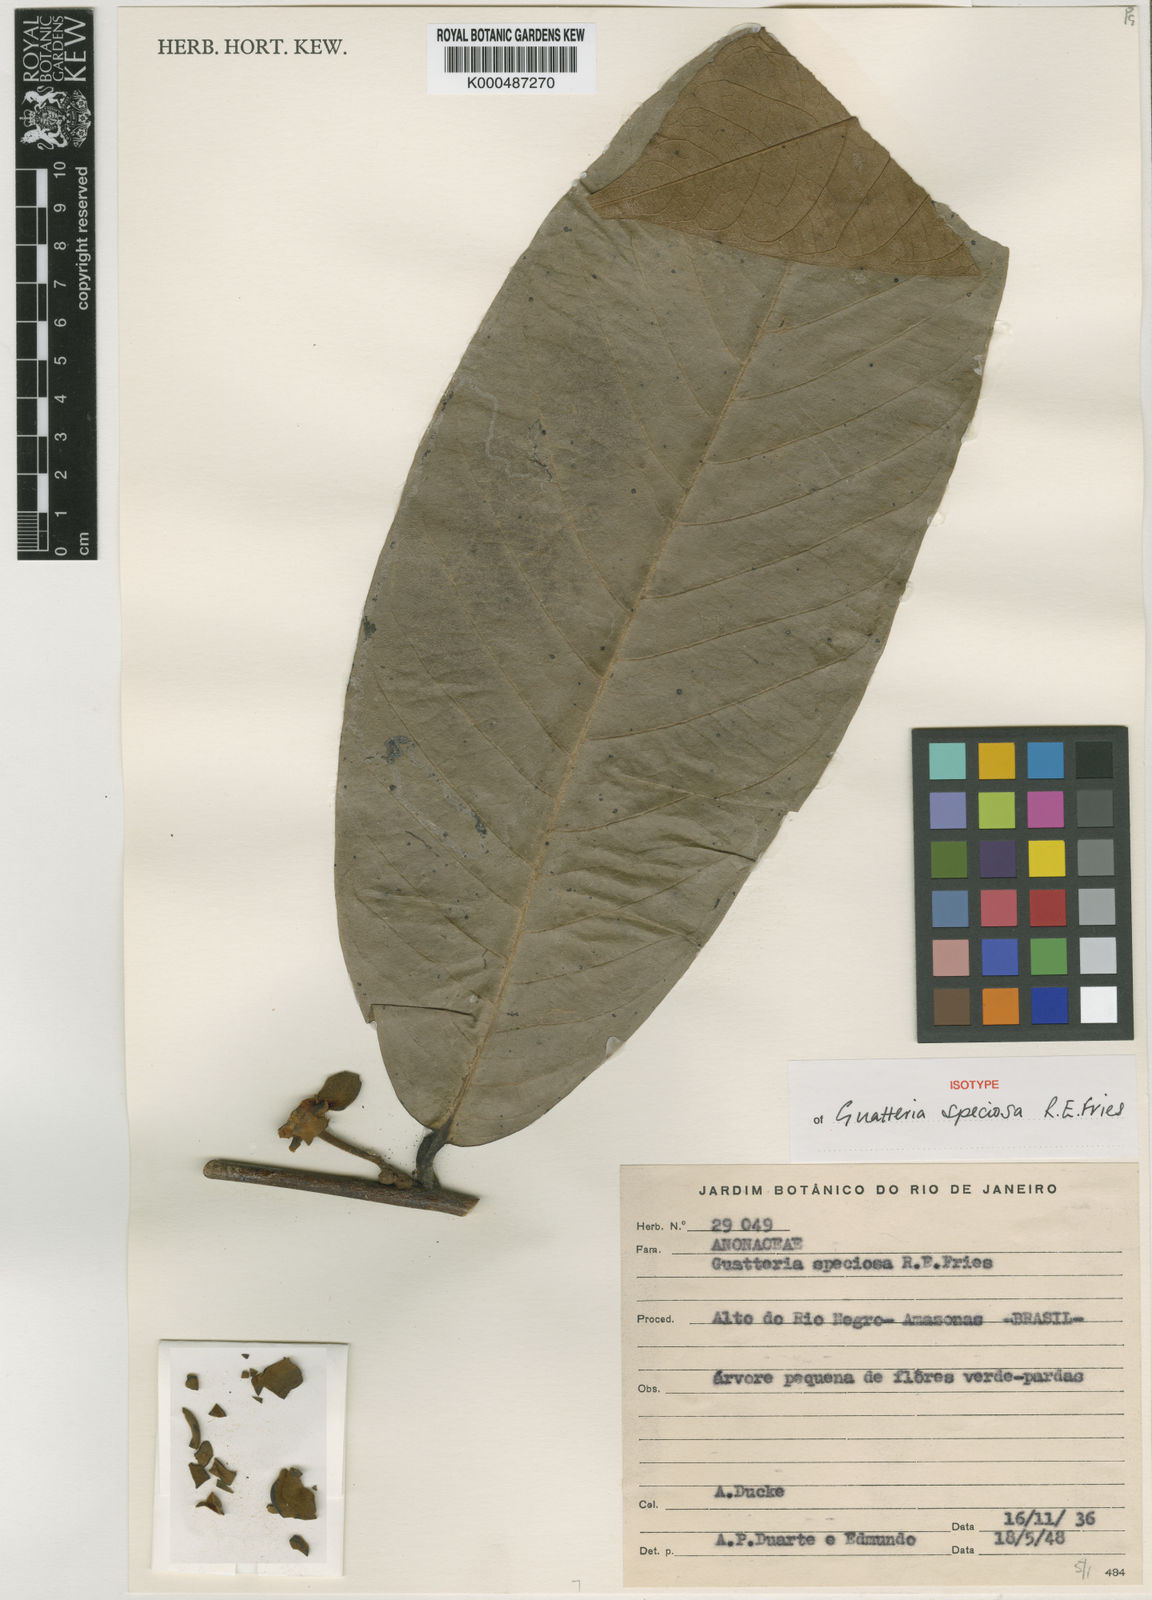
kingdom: Plantae
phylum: Tracheophyta
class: Magnoliopsida
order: Magnoliales
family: Annonaceae
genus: Guatteria
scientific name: Guatteria speciosa
